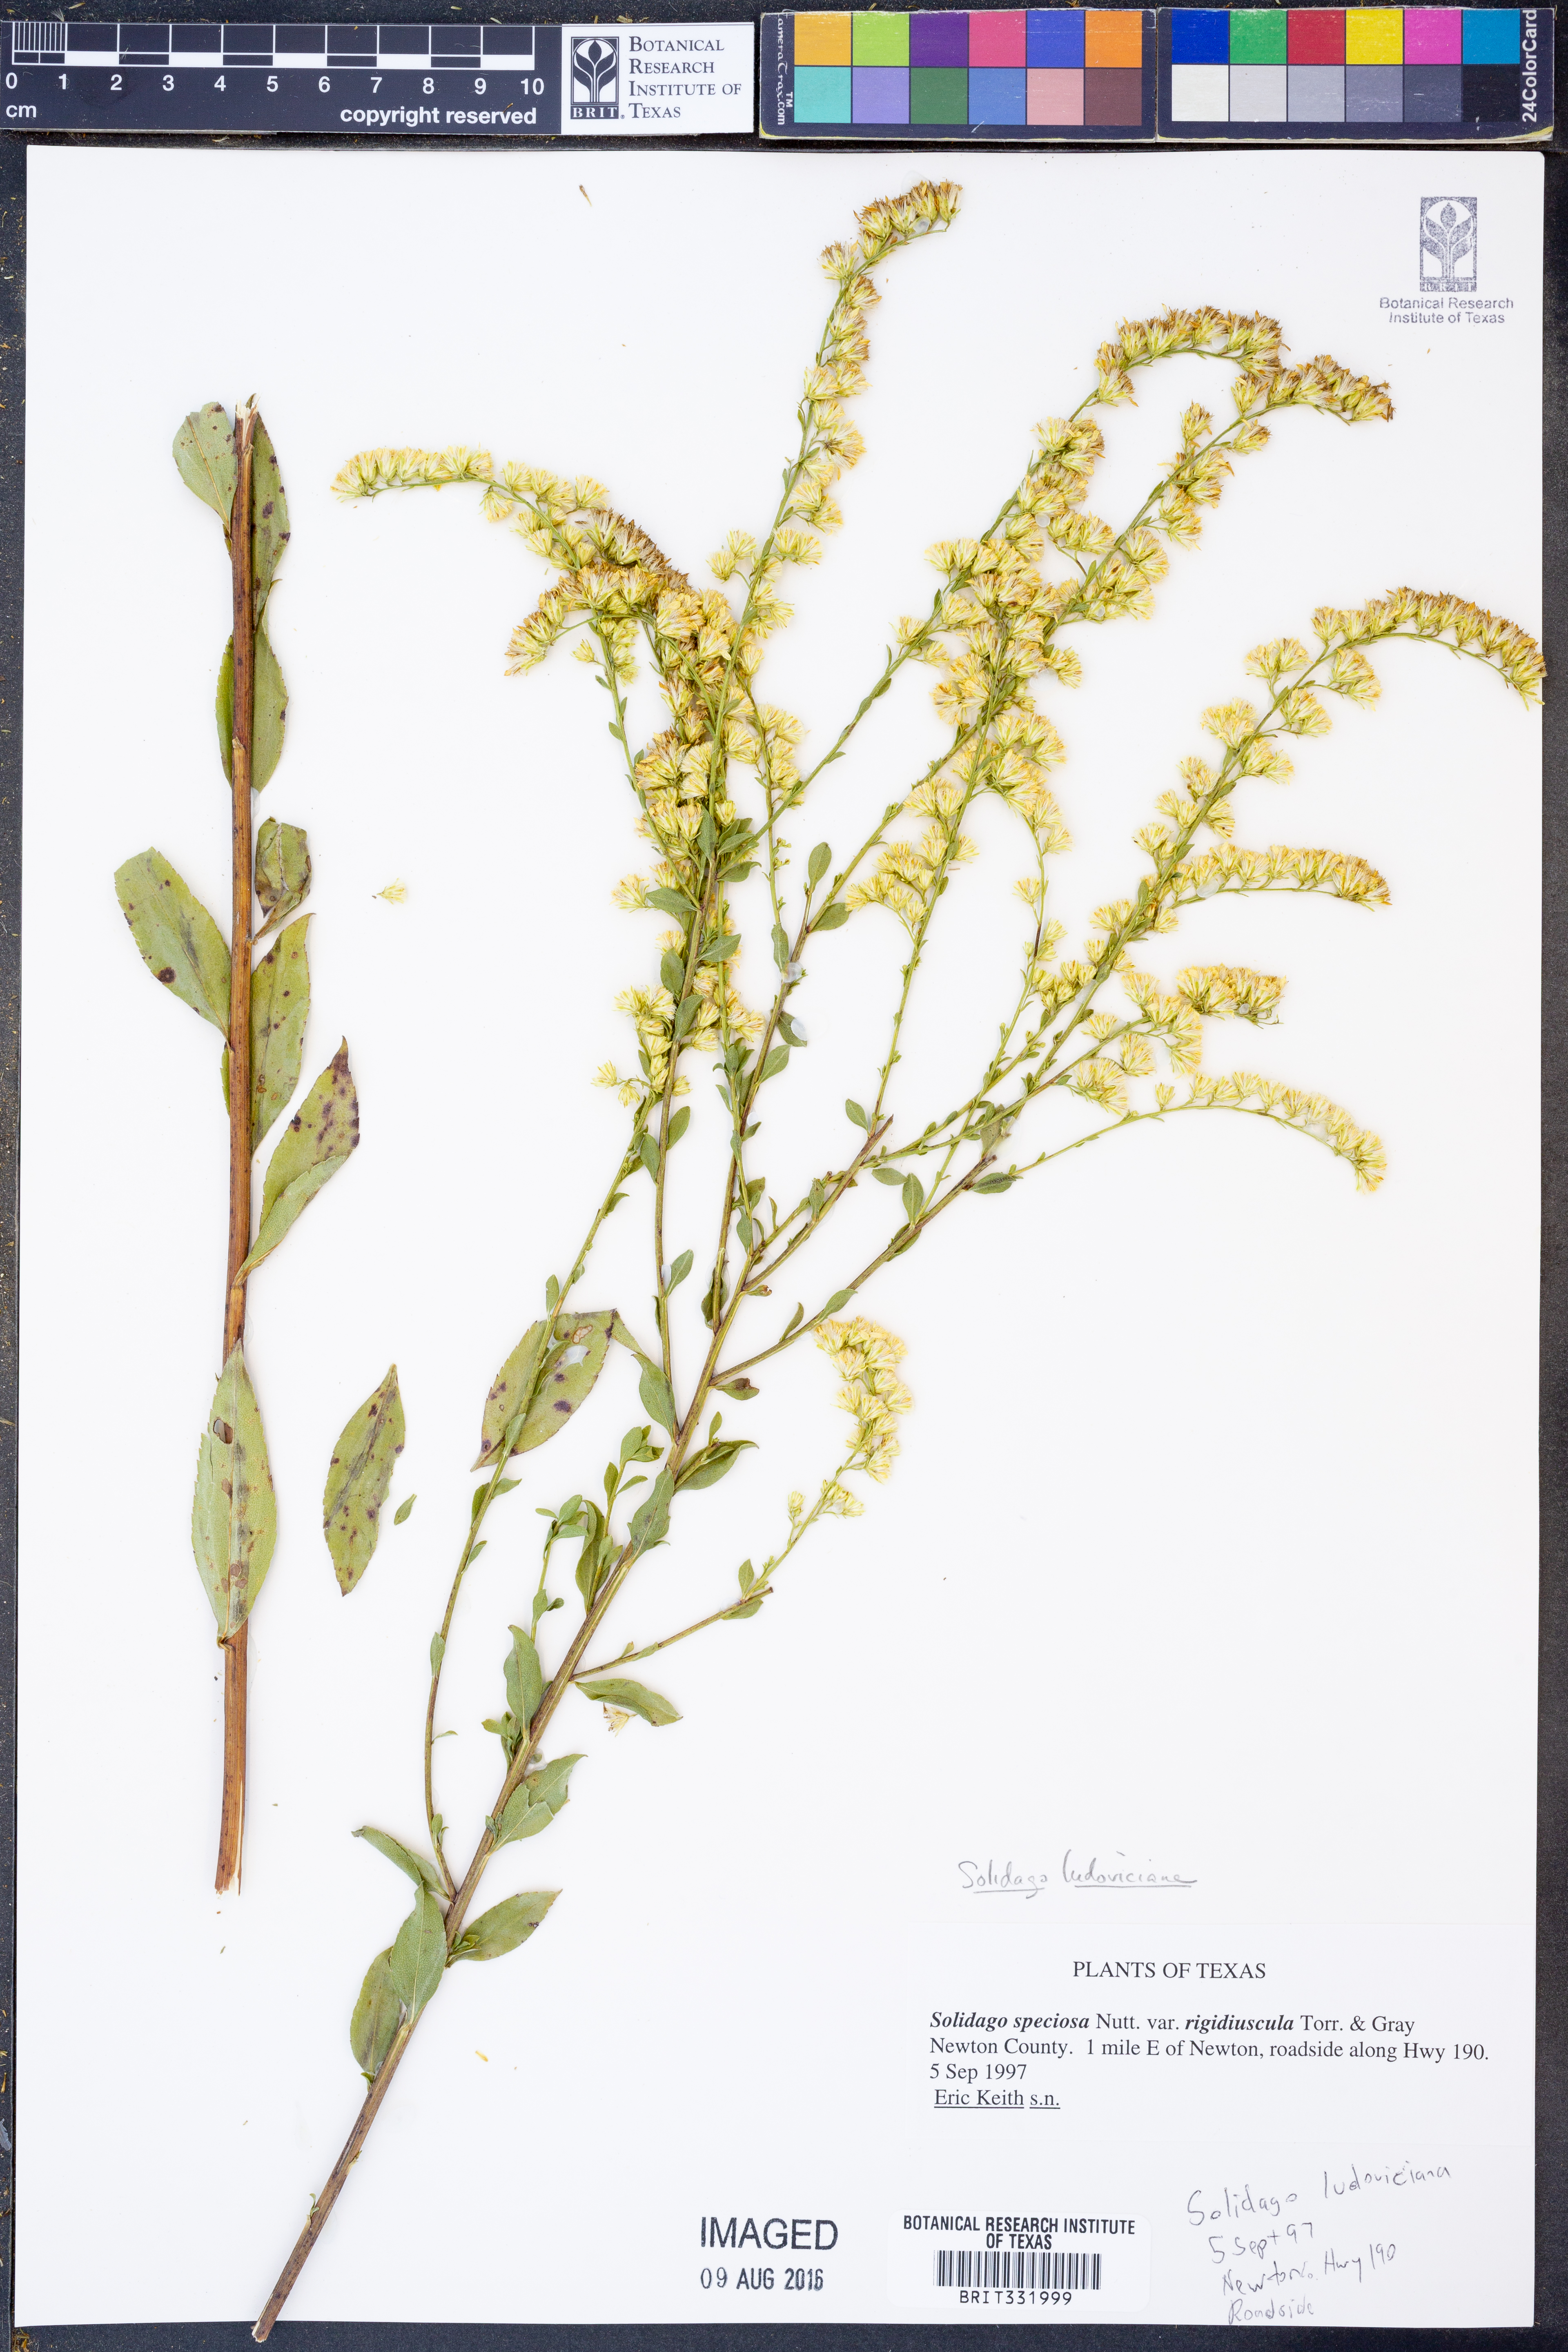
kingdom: Plantae
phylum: Tracheophyta
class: Magnoliopsida
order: Asterales
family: Asteraceae
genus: Solidago
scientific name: Solidago ludoviciana
